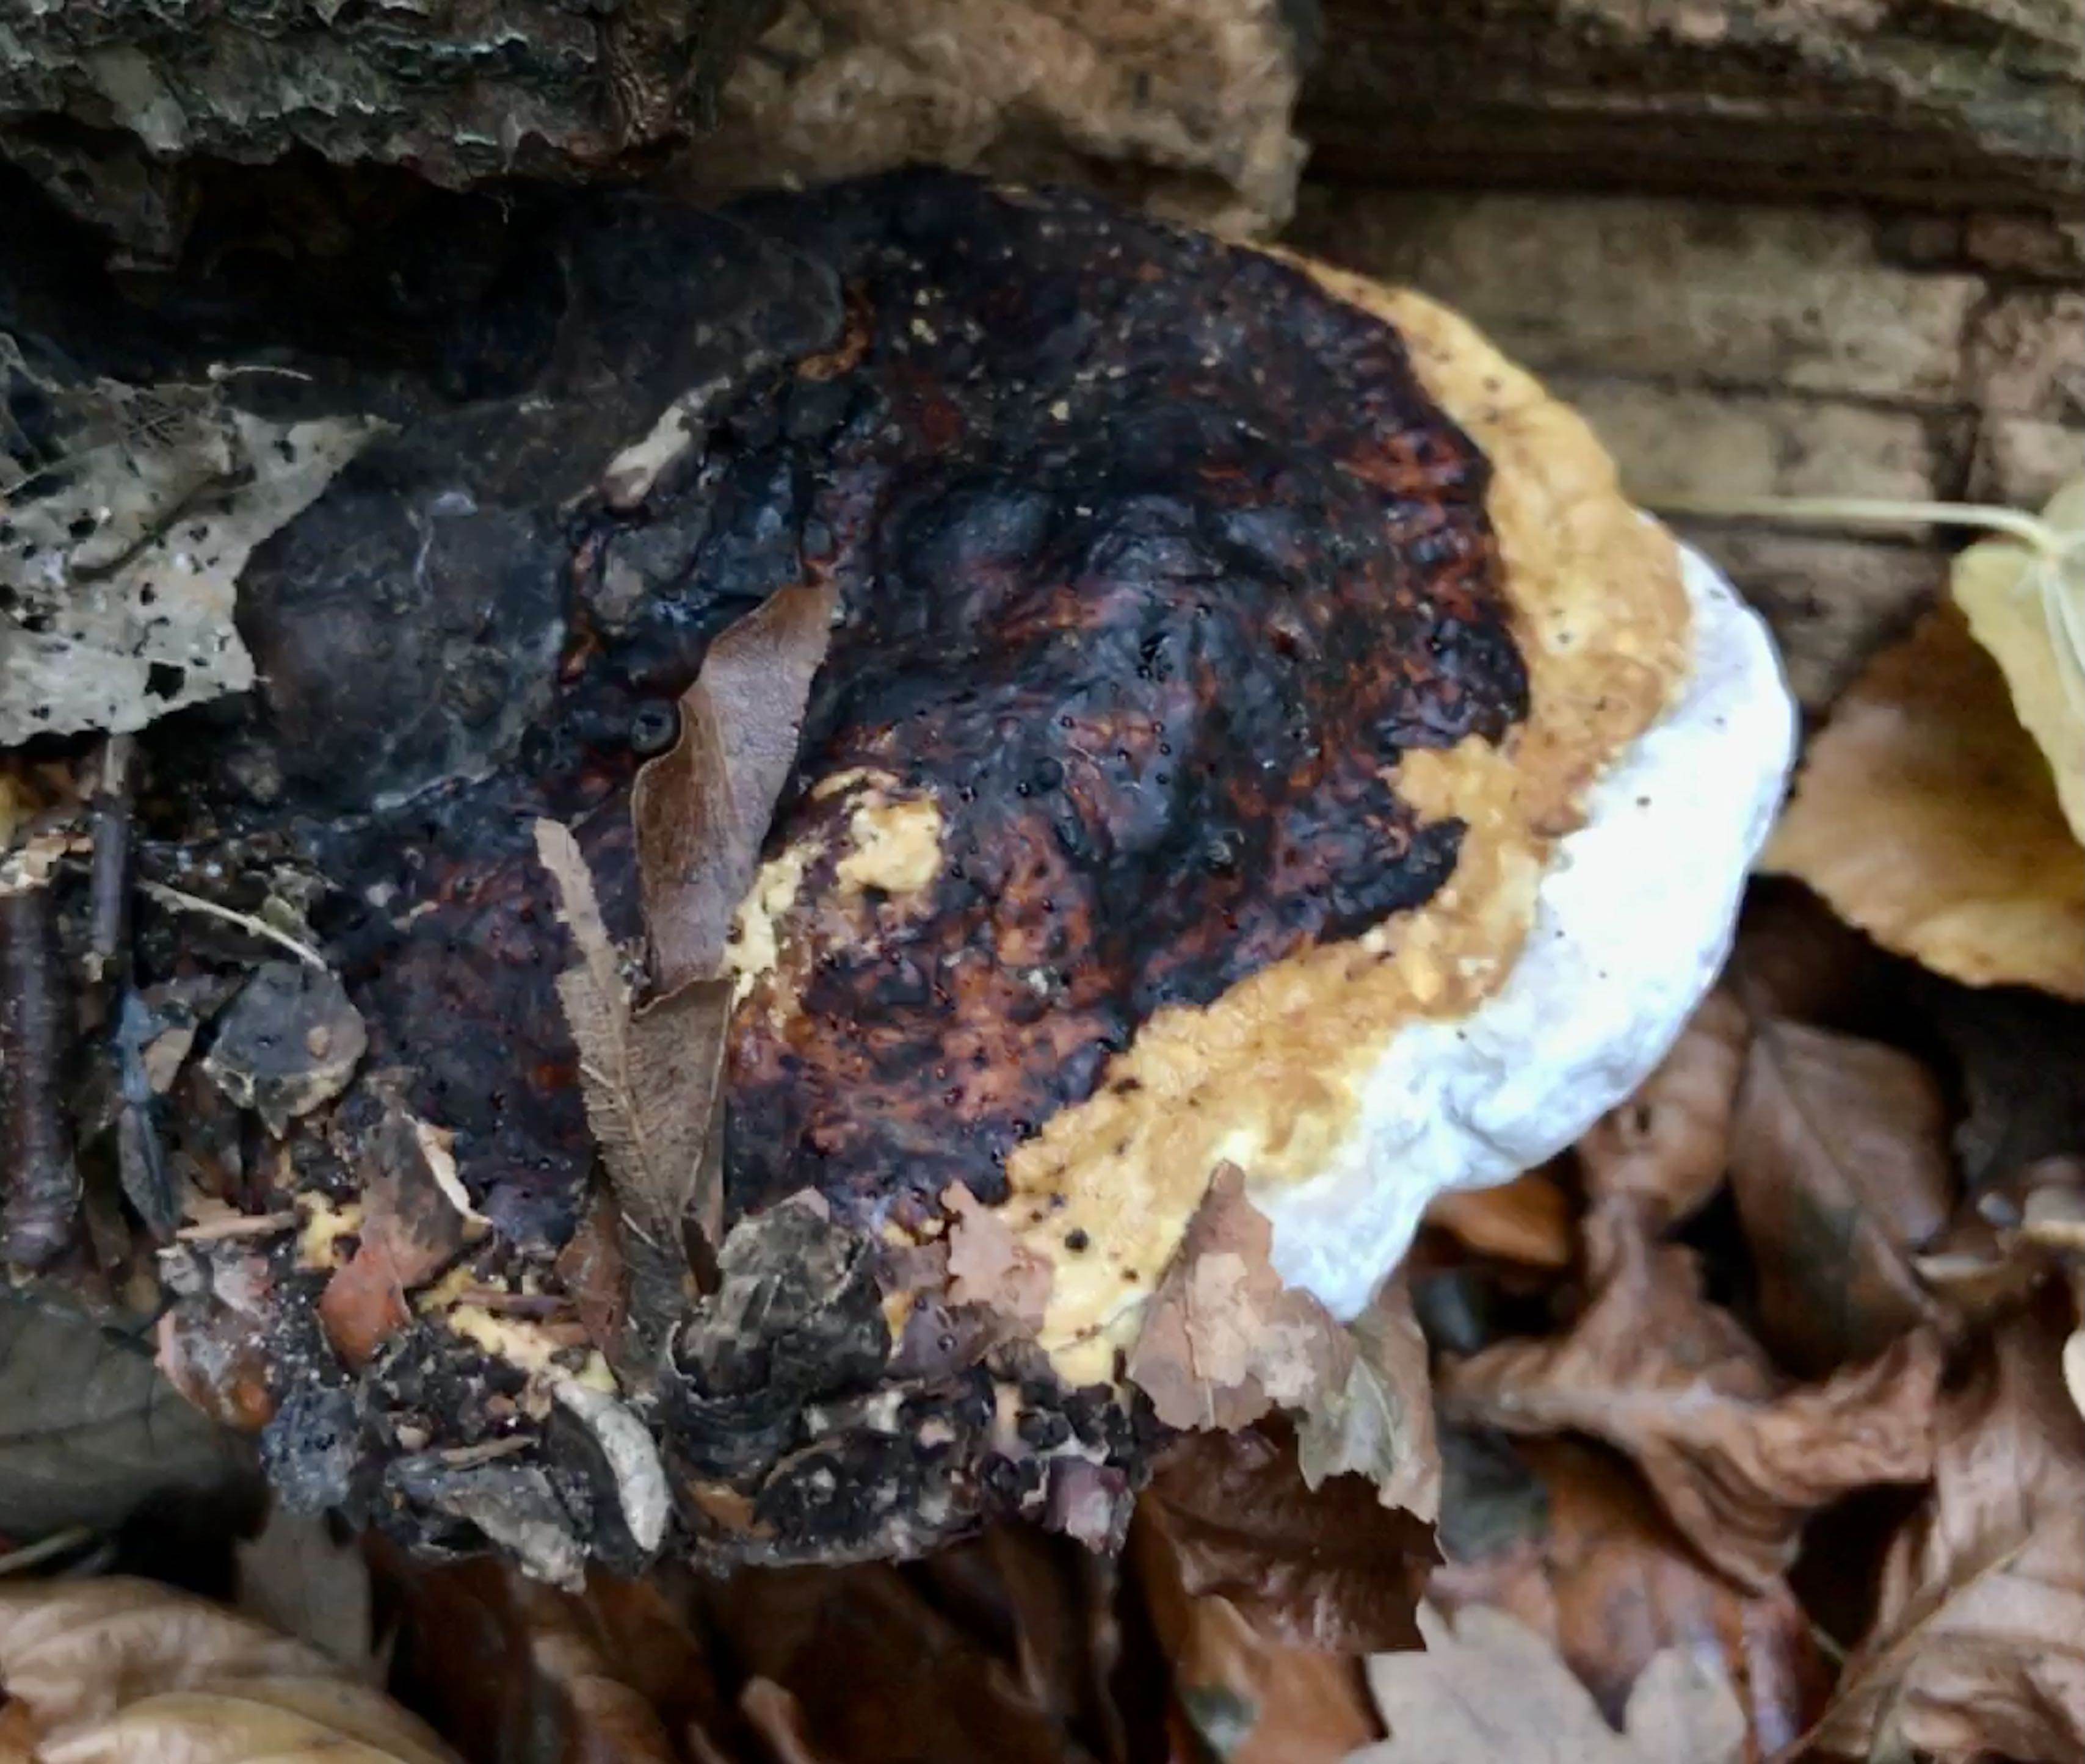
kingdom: Fungi
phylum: Basidiomycota
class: Agaricomycetes
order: Polyporales
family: Fomitopsidaceae
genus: Fomitopsis
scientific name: Fomitopsis pinicola
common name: randbæltet hovporesvamp
